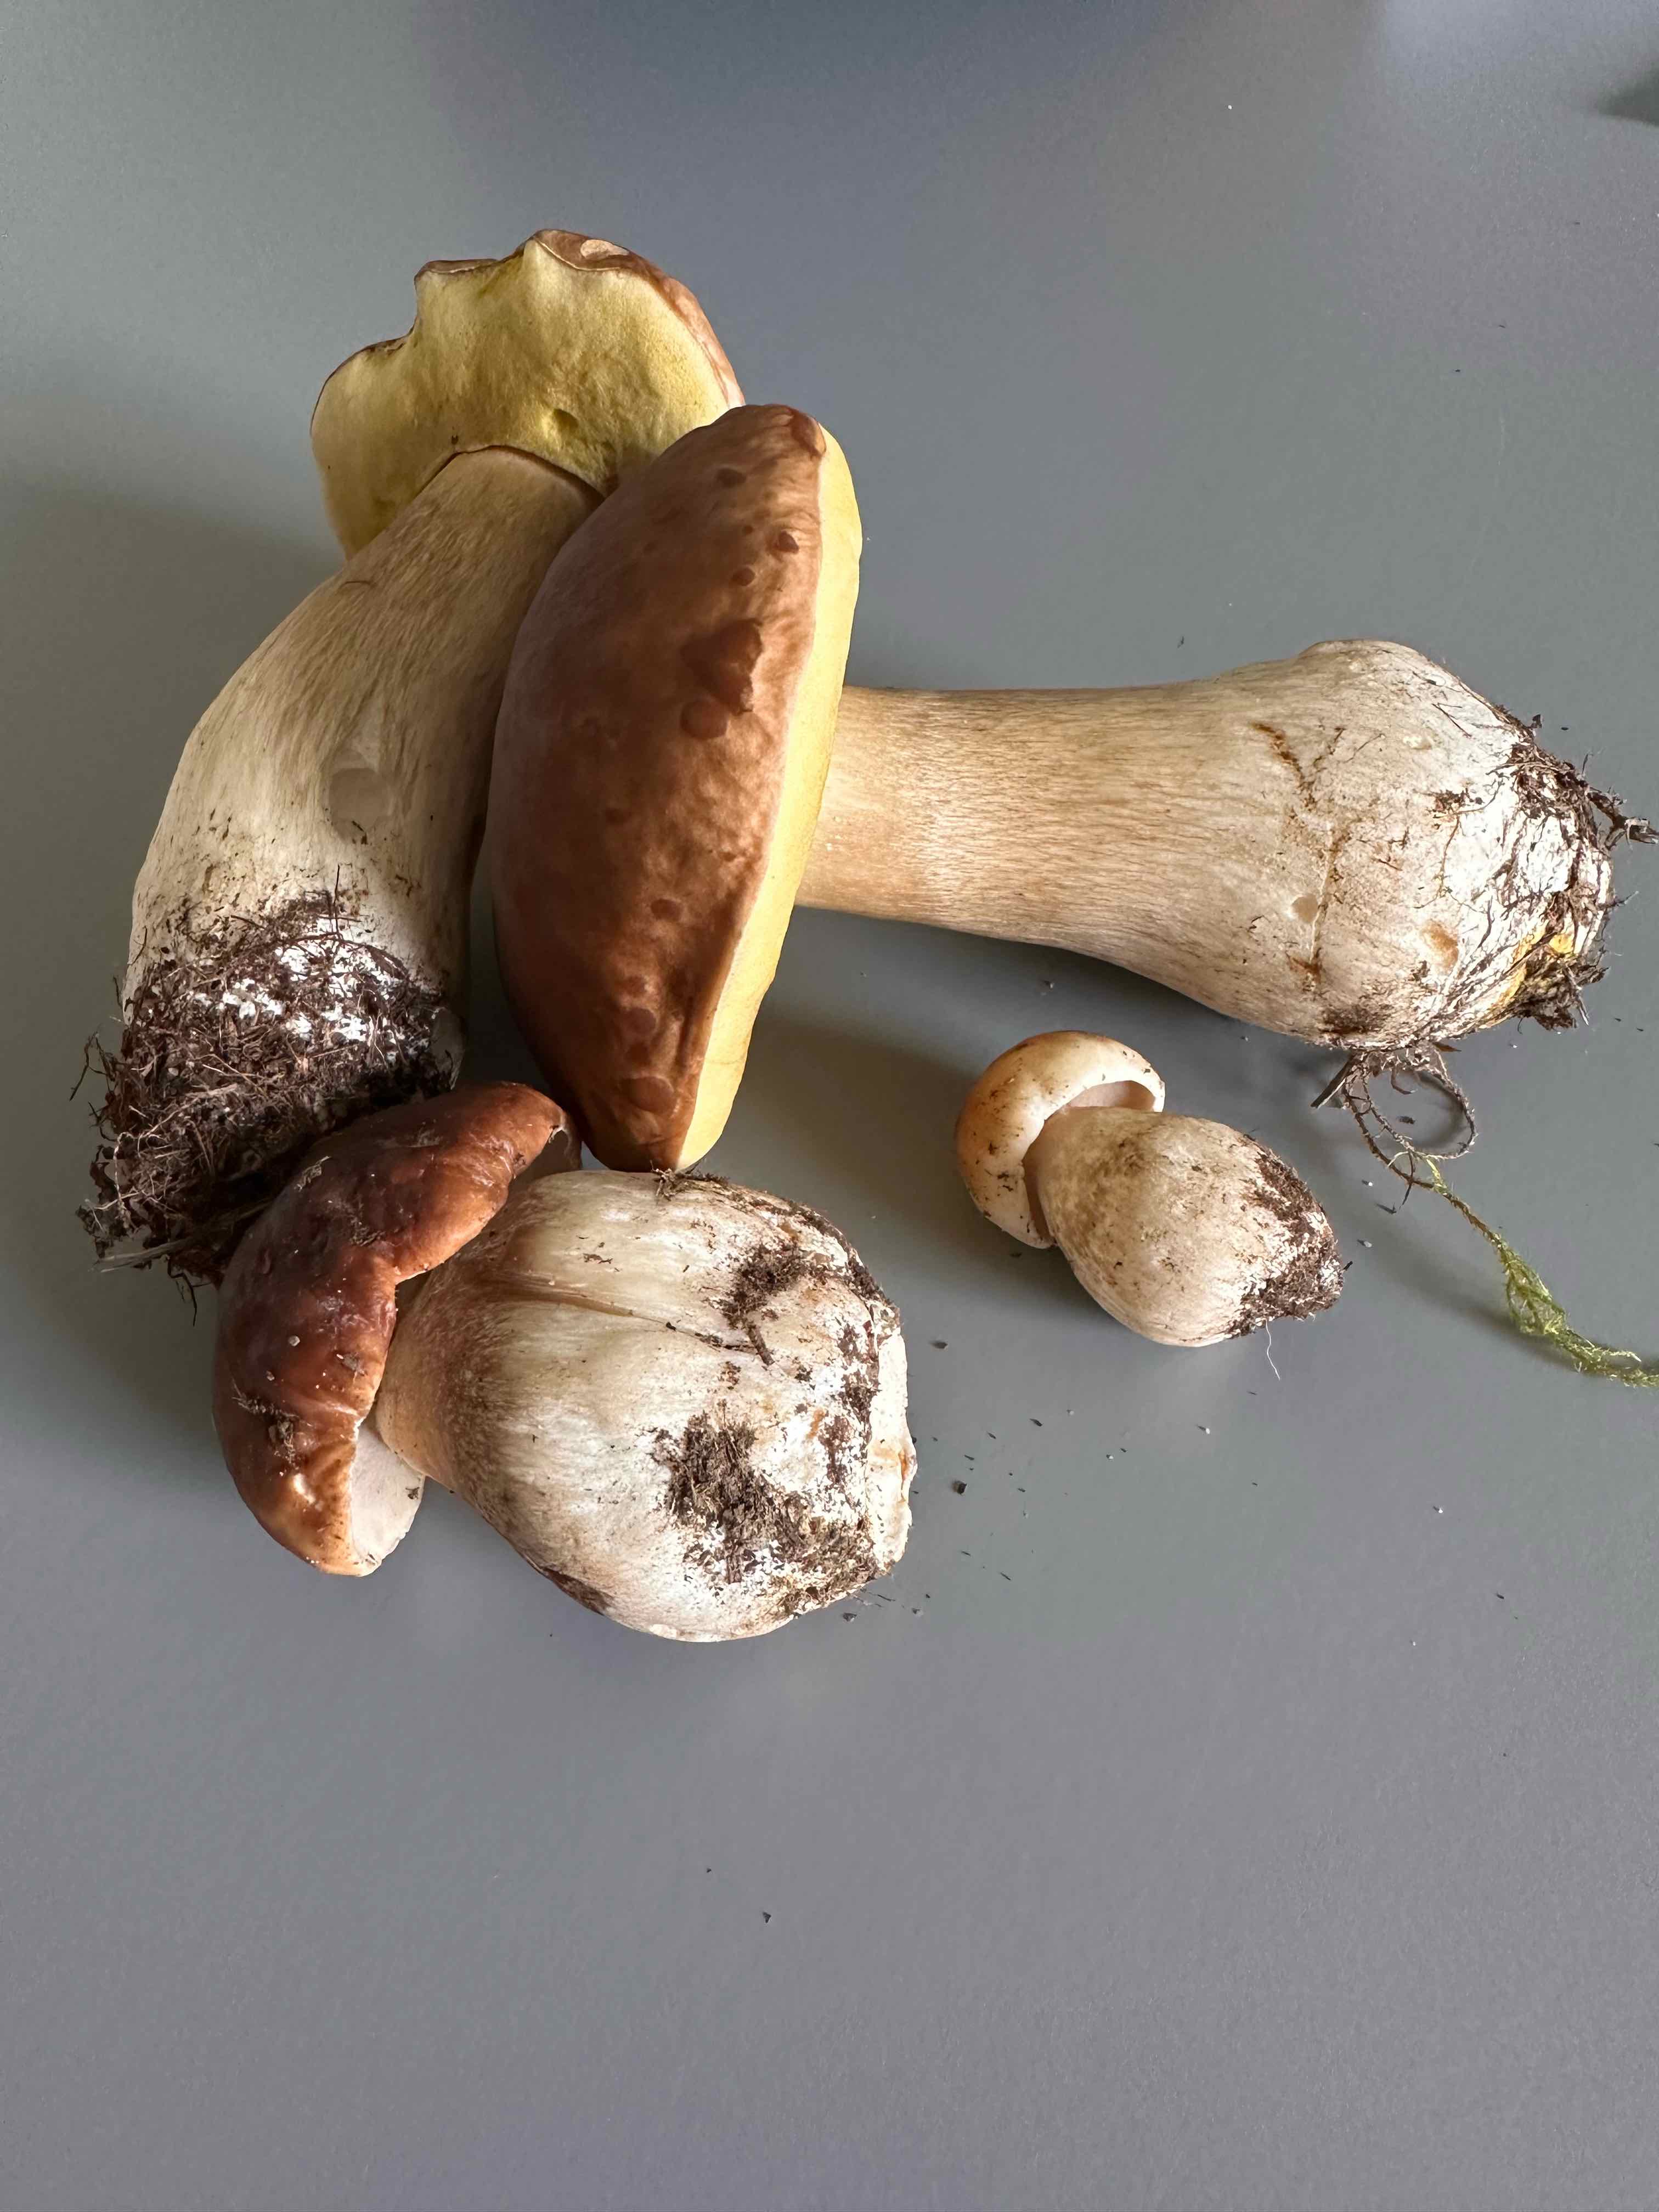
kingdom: Fungi
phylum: Basidiomycota
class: Agaricomycetes
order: Boletales
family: Boletaceae
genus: Boletus
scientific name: Boletus edulis
